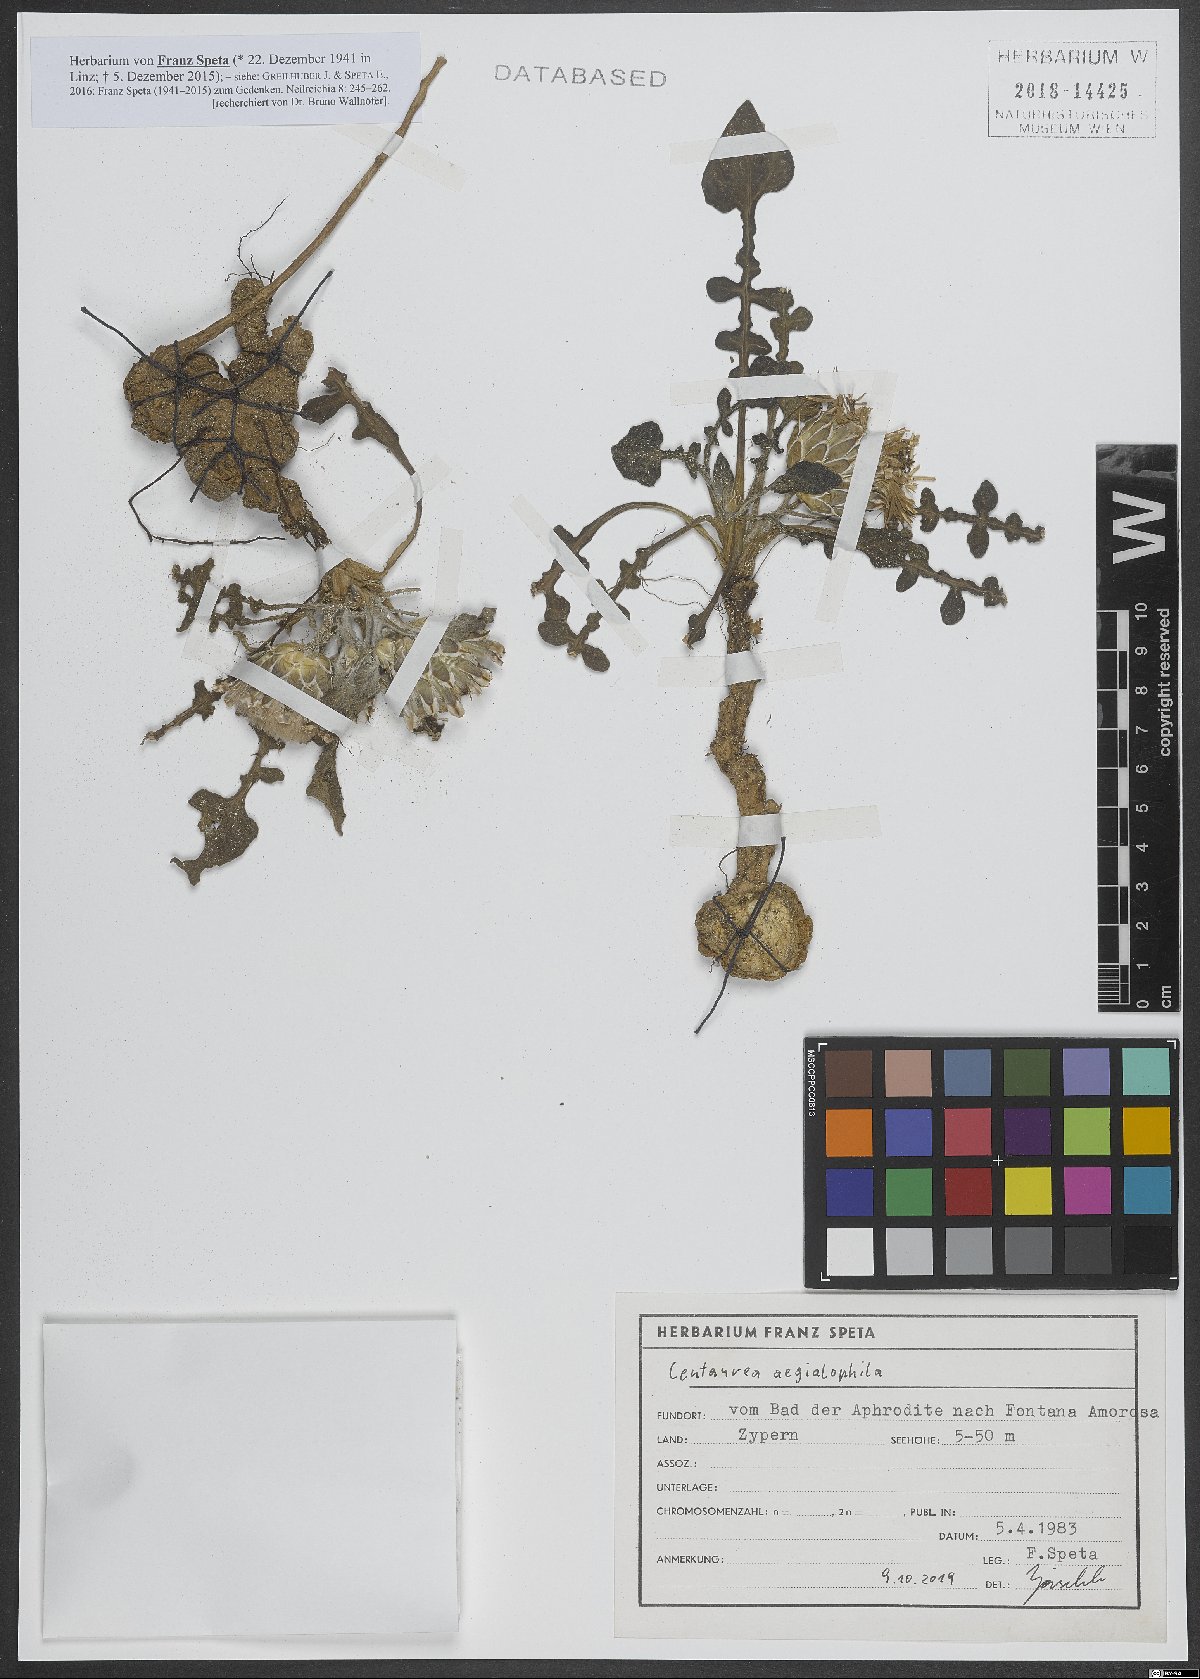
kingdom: Plantae
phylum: Tracheophyta
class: Magnoliopsida
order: Asterales
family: Asteraceae
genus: Centaurea
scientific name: Centaurea aegialophila
